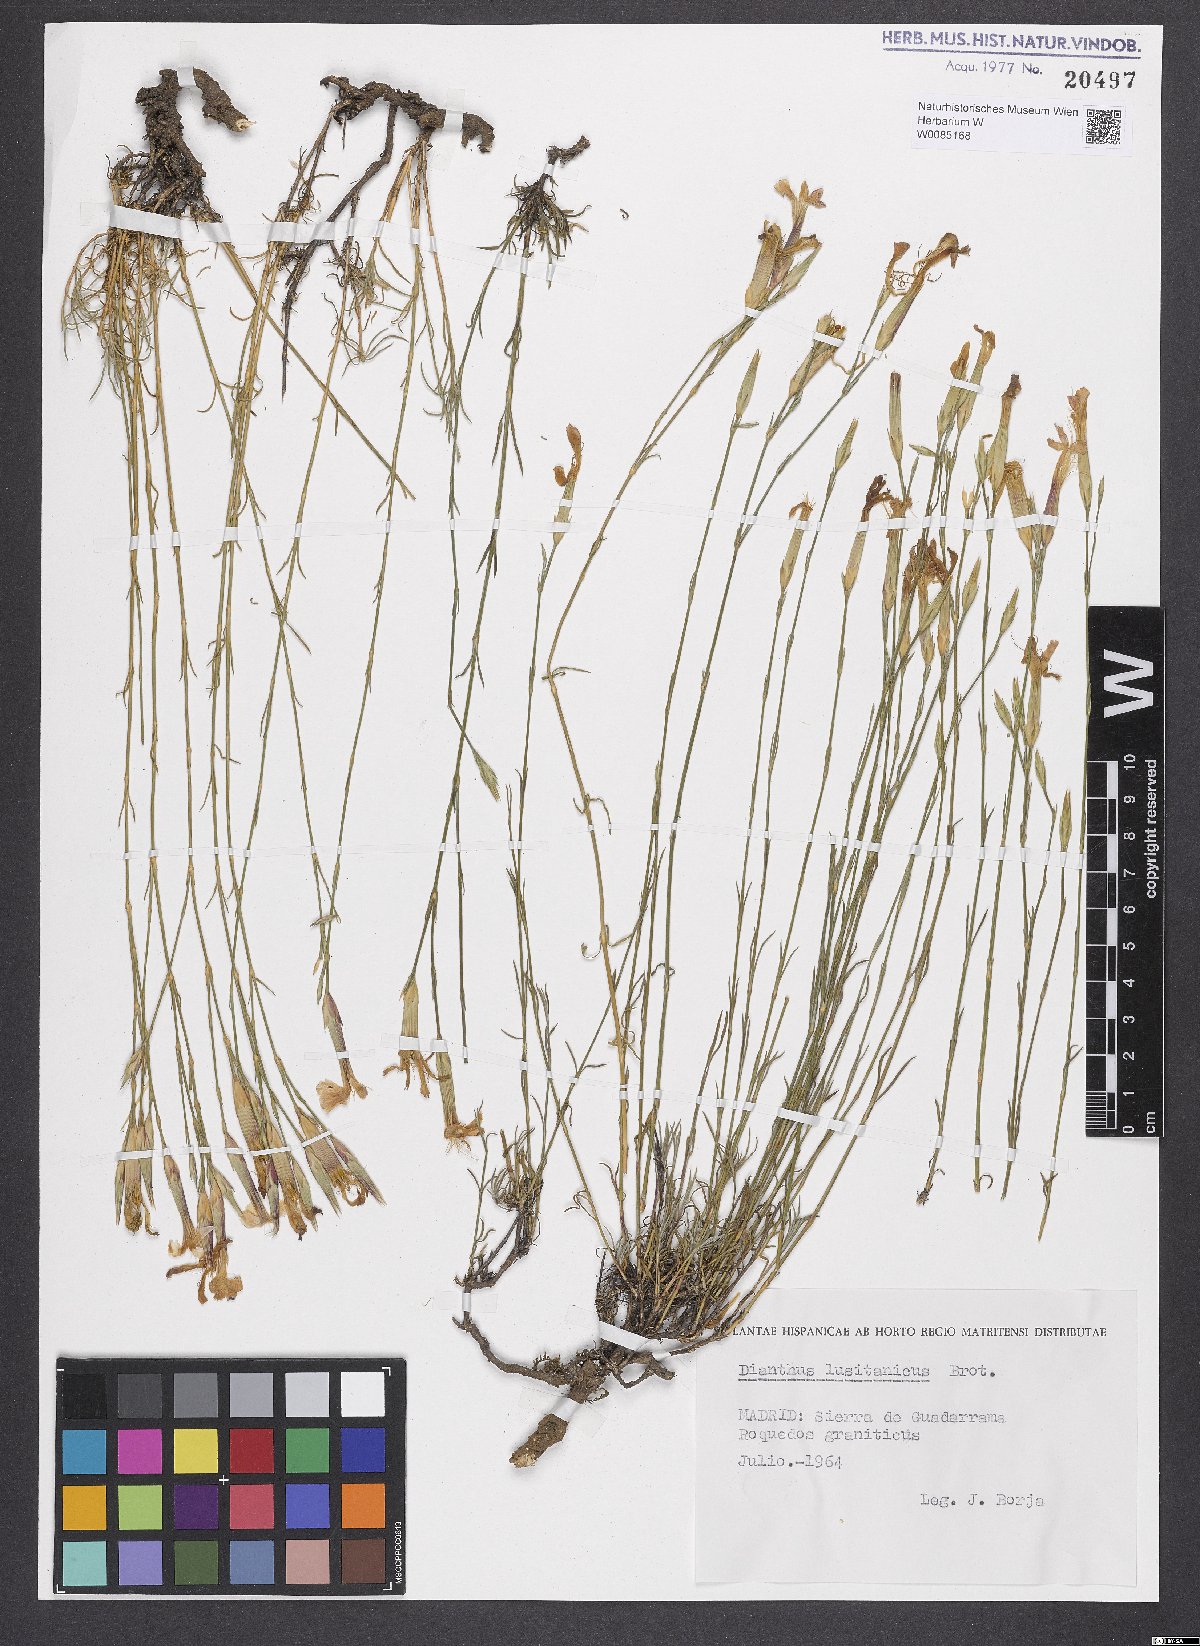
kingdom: Plantae
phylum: Tracheophyta
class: Magnoliopsida
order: Caryophyllales
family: Caryophyllaceae
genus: Dianthus
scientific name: Dianthus lusitanus
